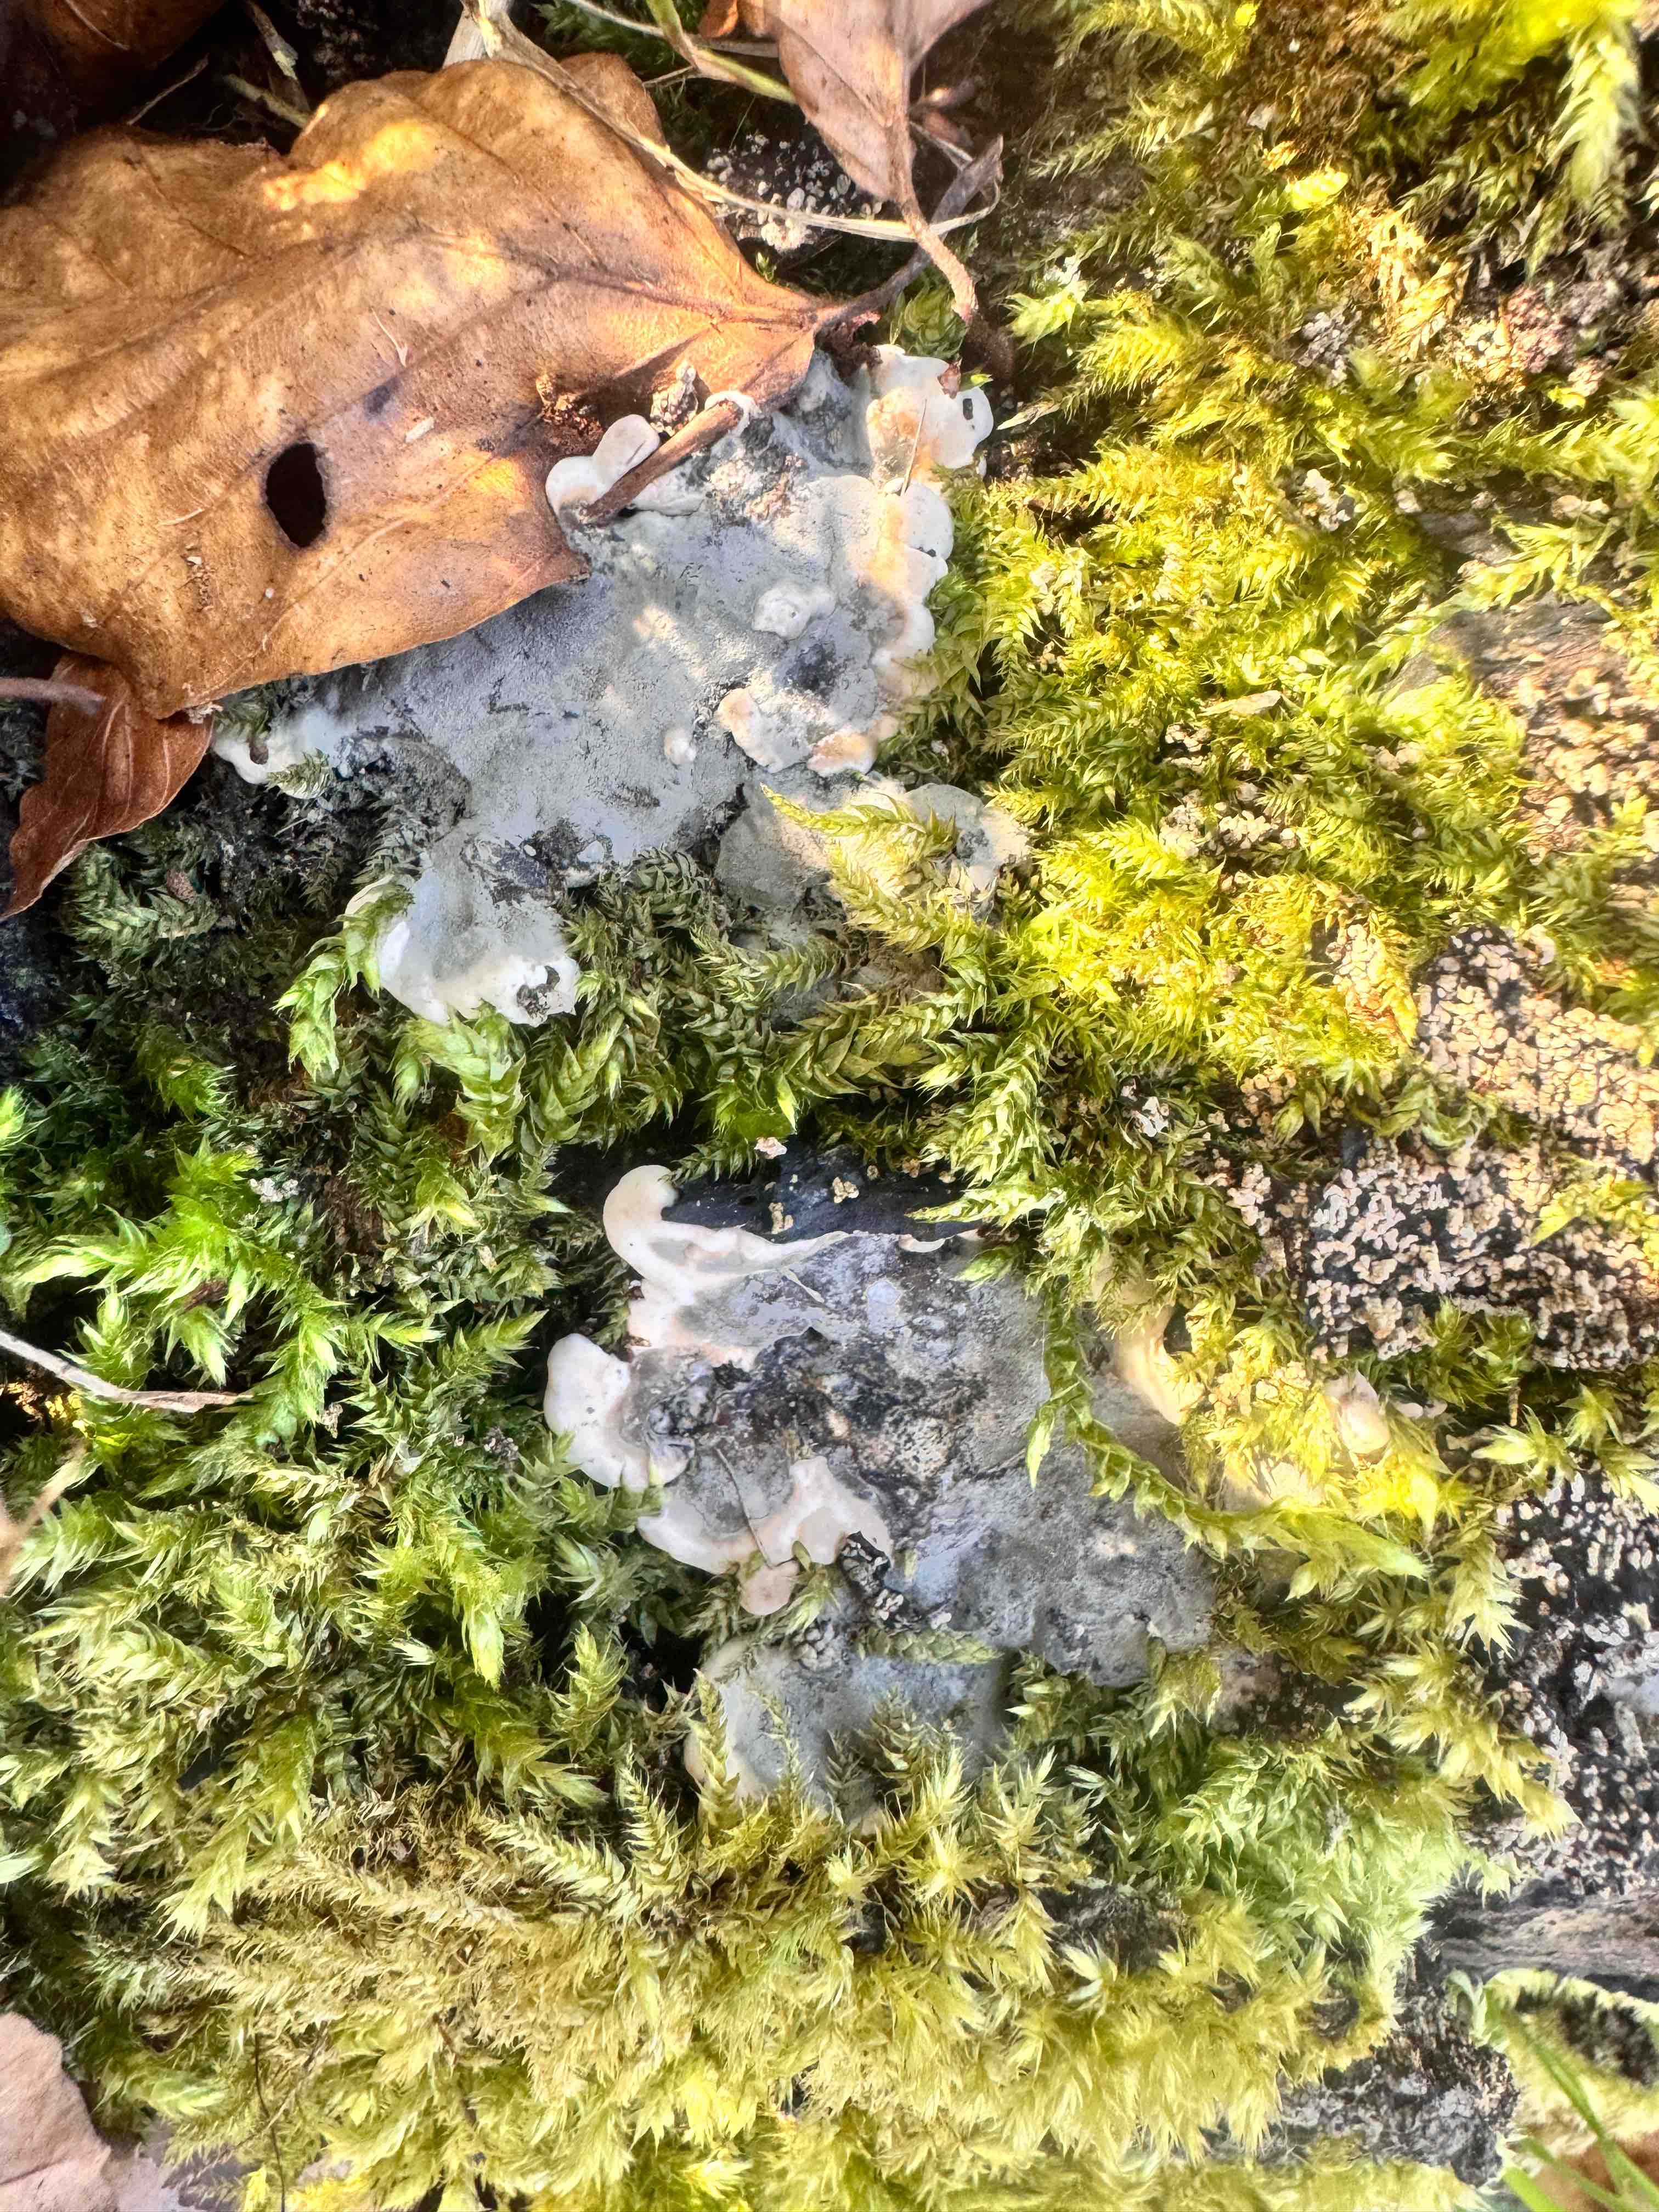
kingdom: Fungi
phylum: Ascomycota
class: Sordariomycetes
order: Xylariales
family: Xylariaceae
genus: Kretzschmaria
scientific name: Kretzschmaria deusta
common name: stor kulsvamp
